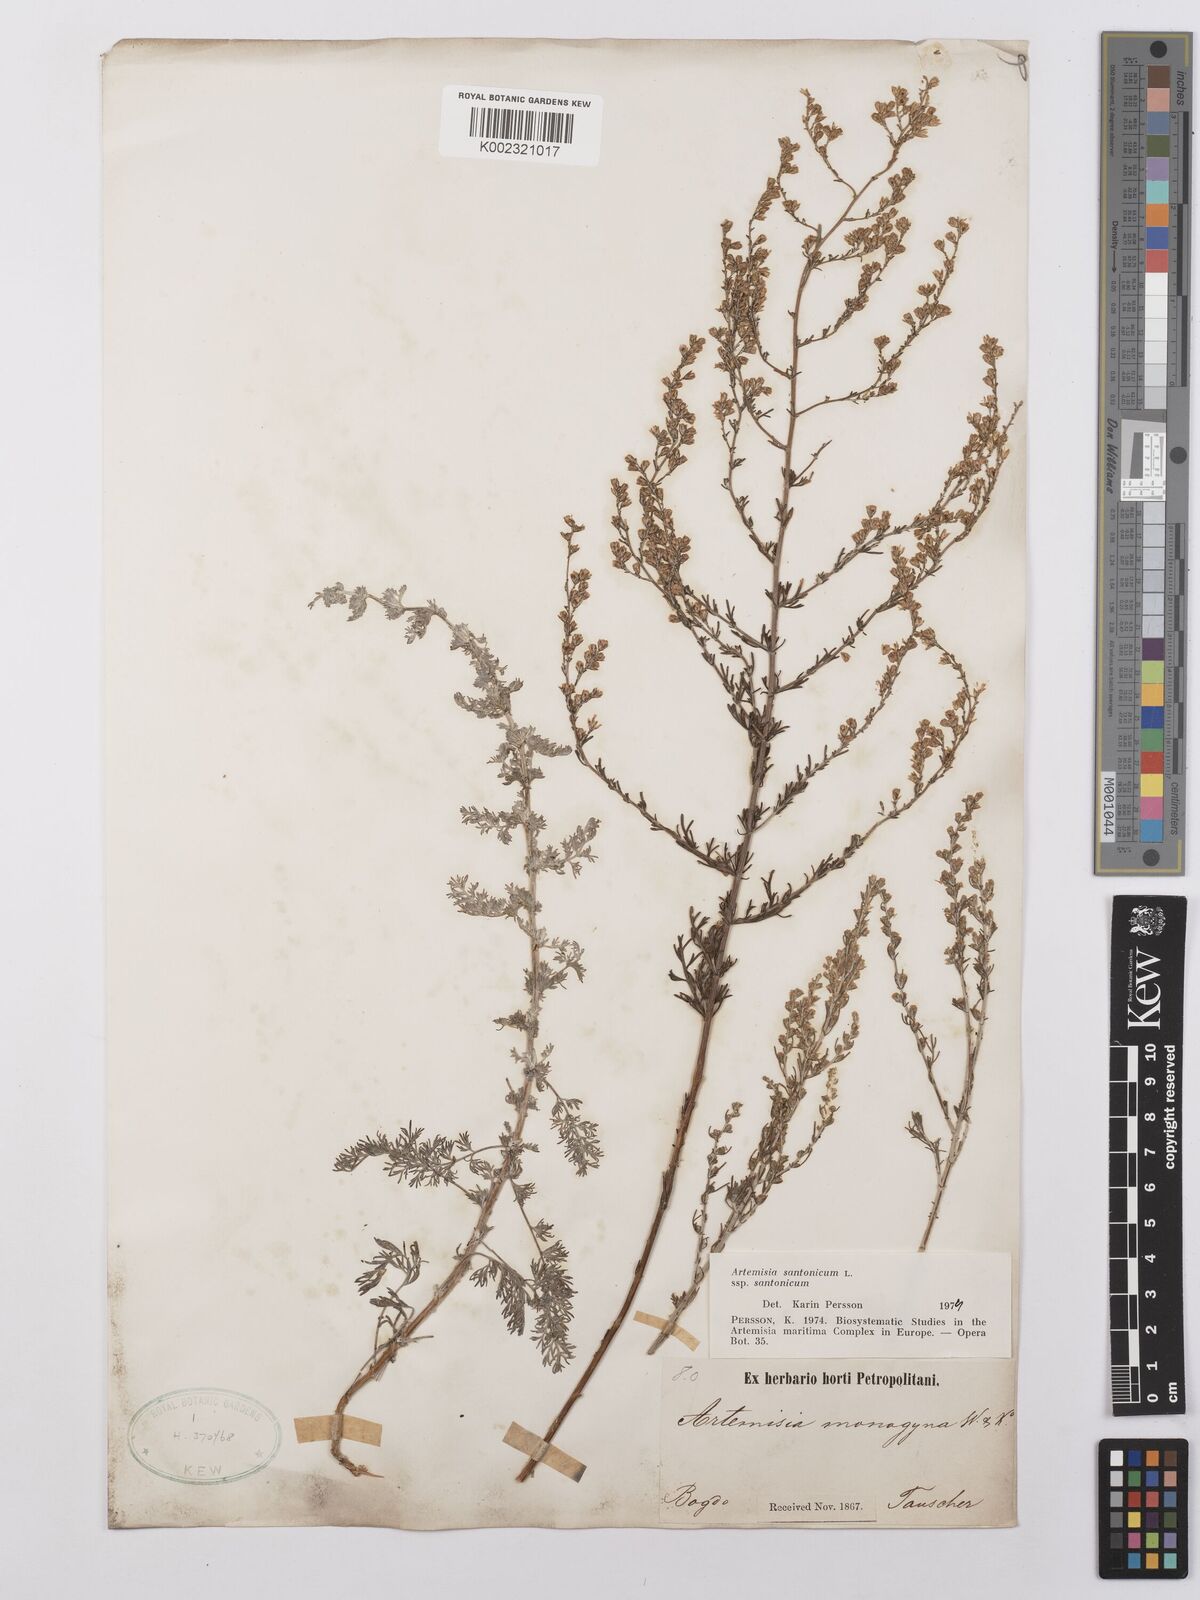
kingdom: Plantae
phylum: Tracheophyta
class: Magnoliopsida
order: Asterales
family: Asteraceae
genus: Artemisia
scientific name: Artemisia santonicum
